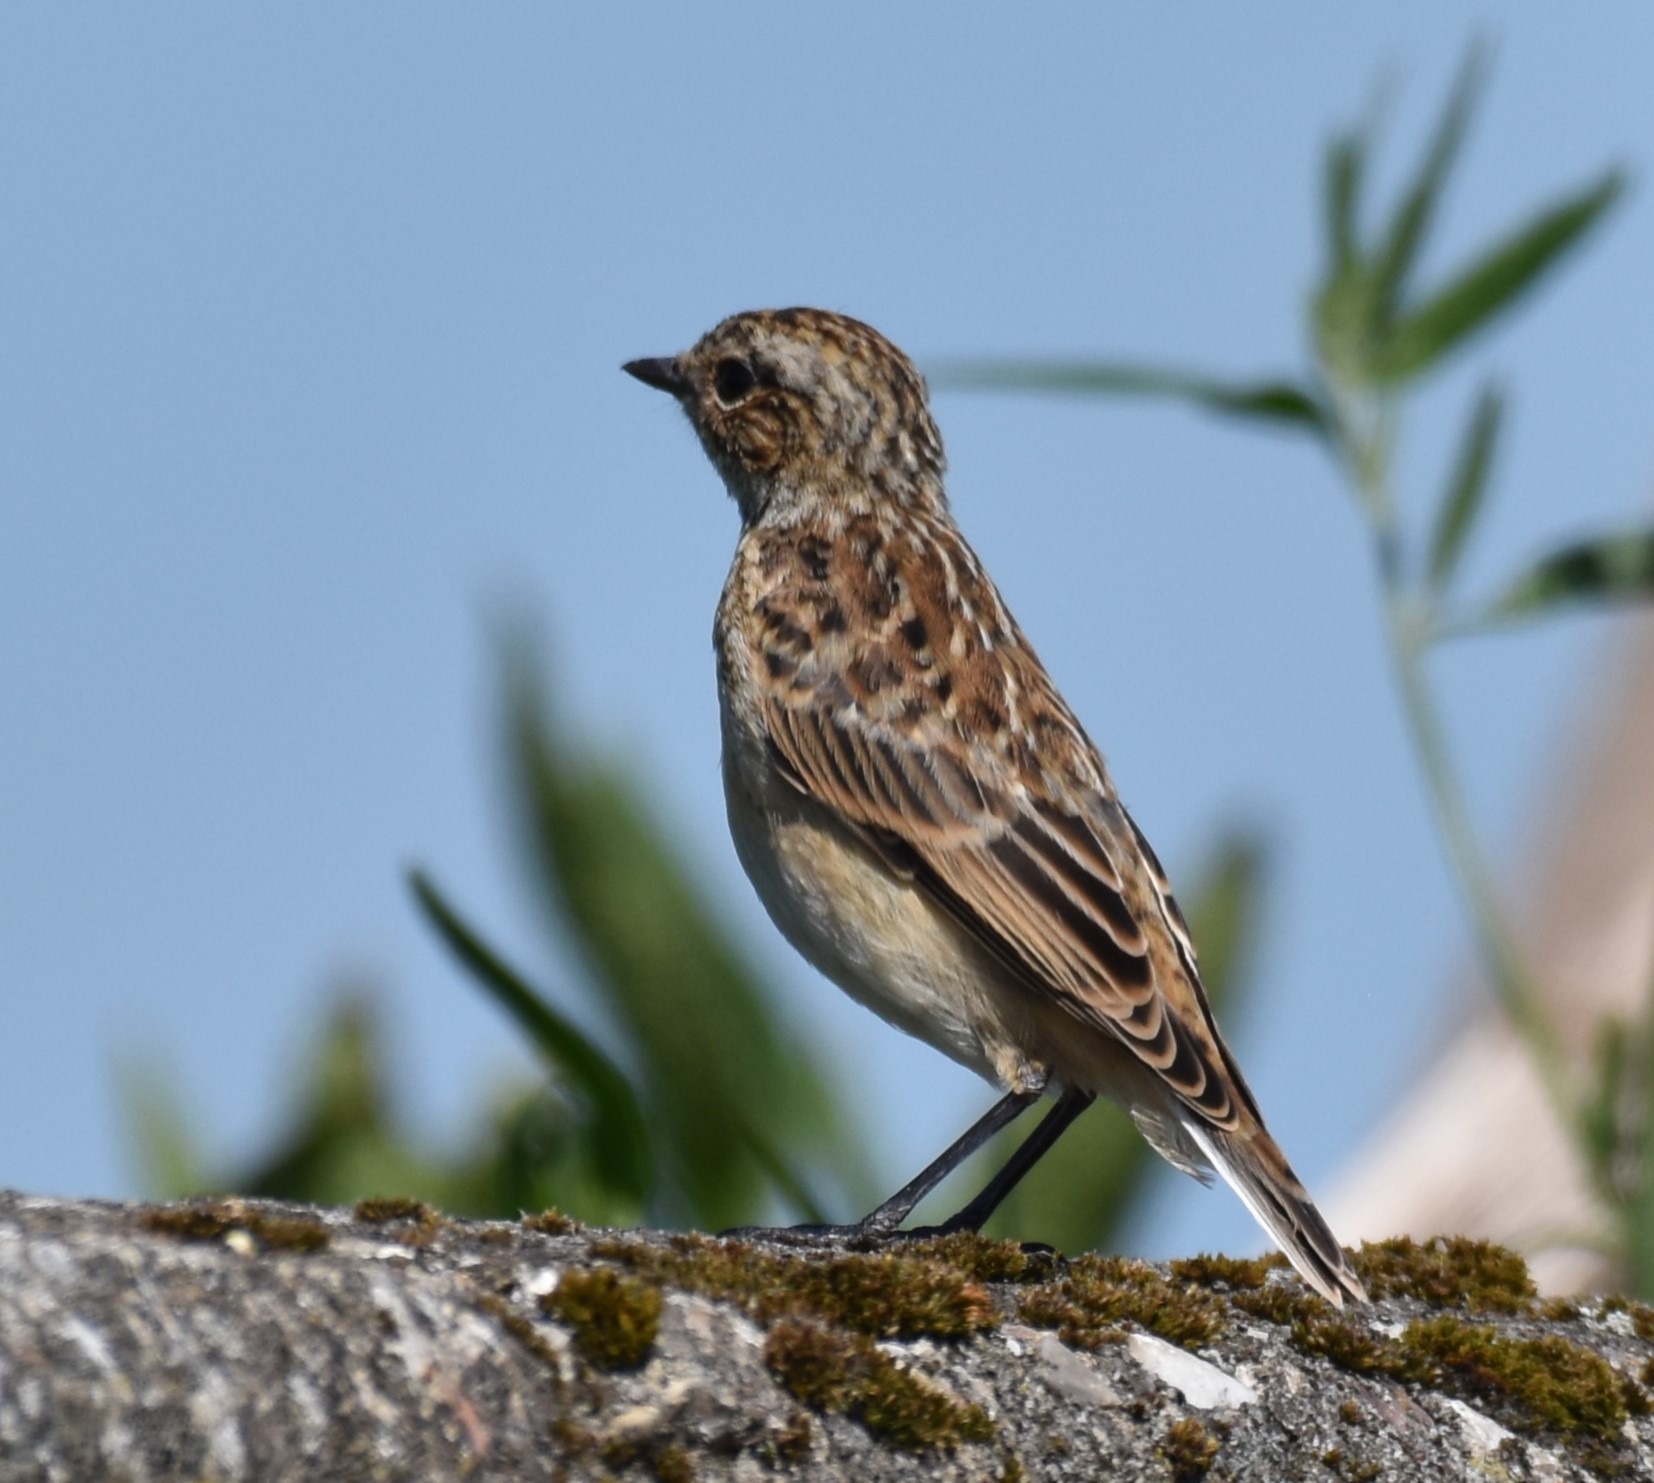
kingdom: Animalia
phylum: Chordata
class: Aves
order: Passeriformes
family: Muscicapidae
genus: Saxicola
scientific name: Saxicola rubetra
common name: Bynkefugl
